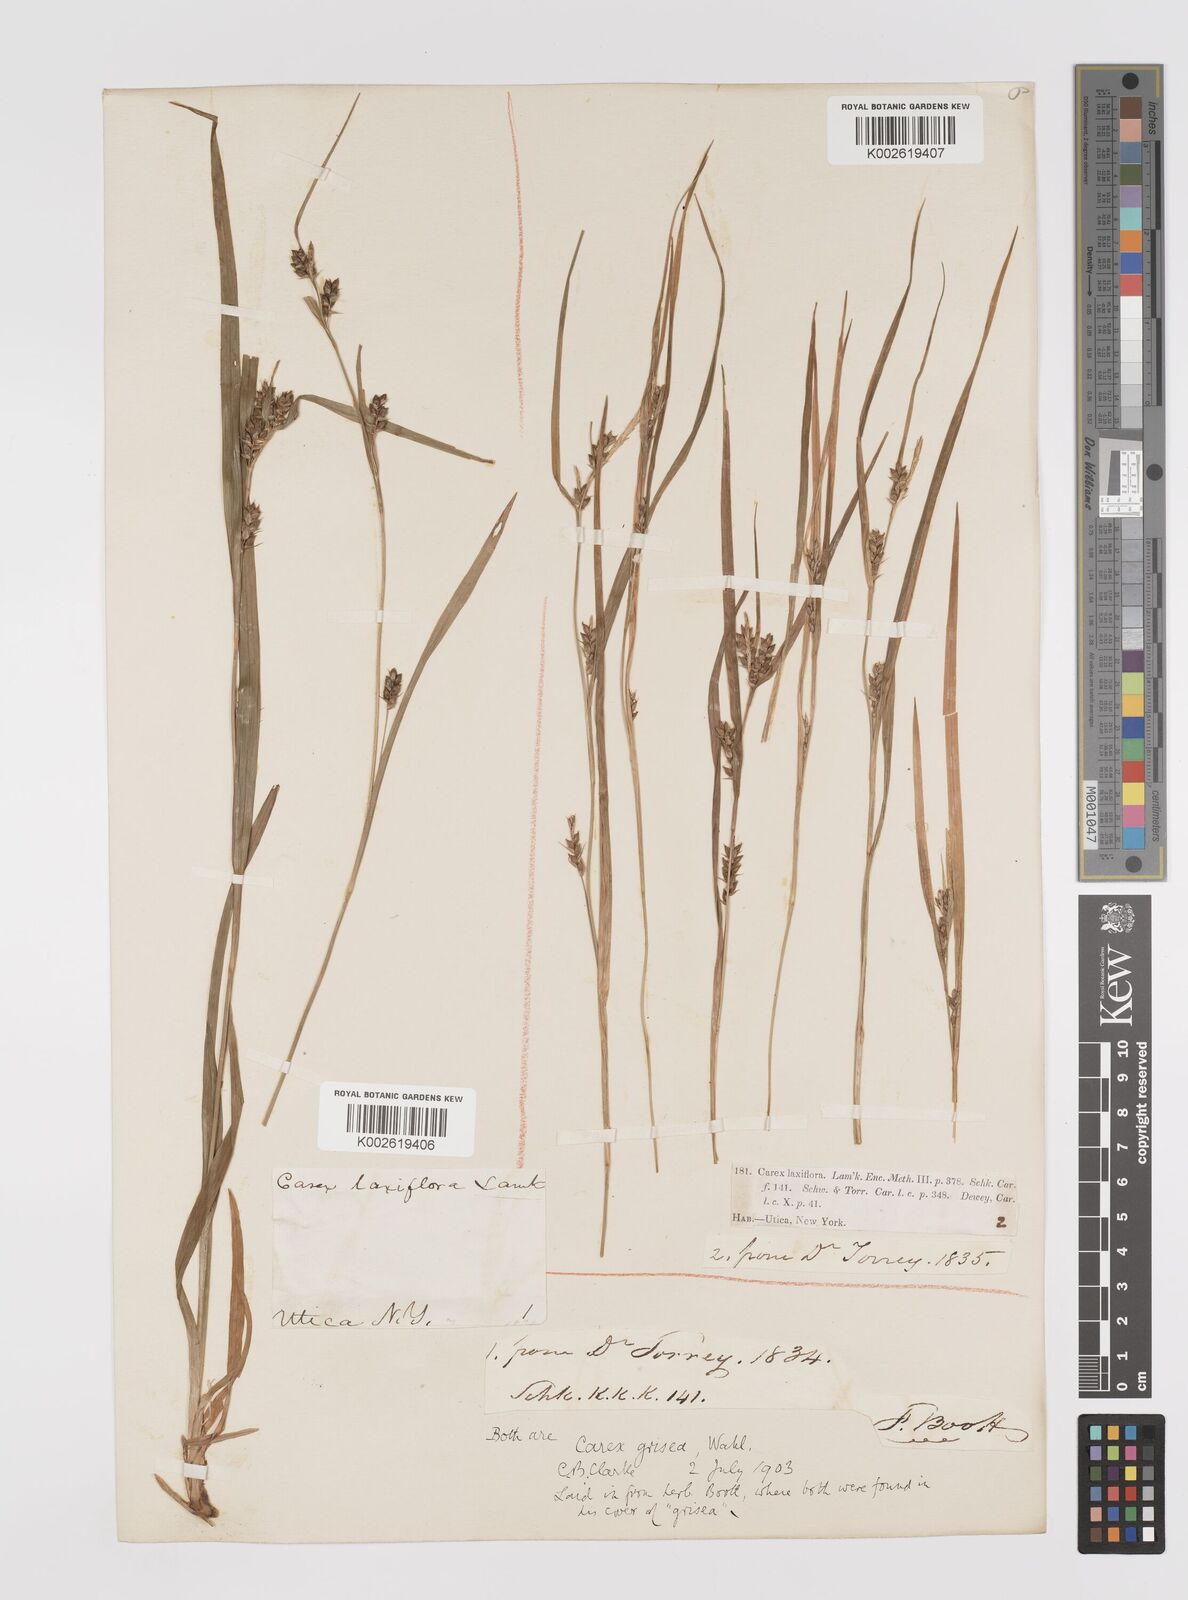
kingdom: Plantae
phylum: Tracheophyta
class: Liliopsida
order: Poales
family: Cyperaceae
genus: Carex
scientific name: Carex grisea
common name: Eastern narrow-leaved sedge
